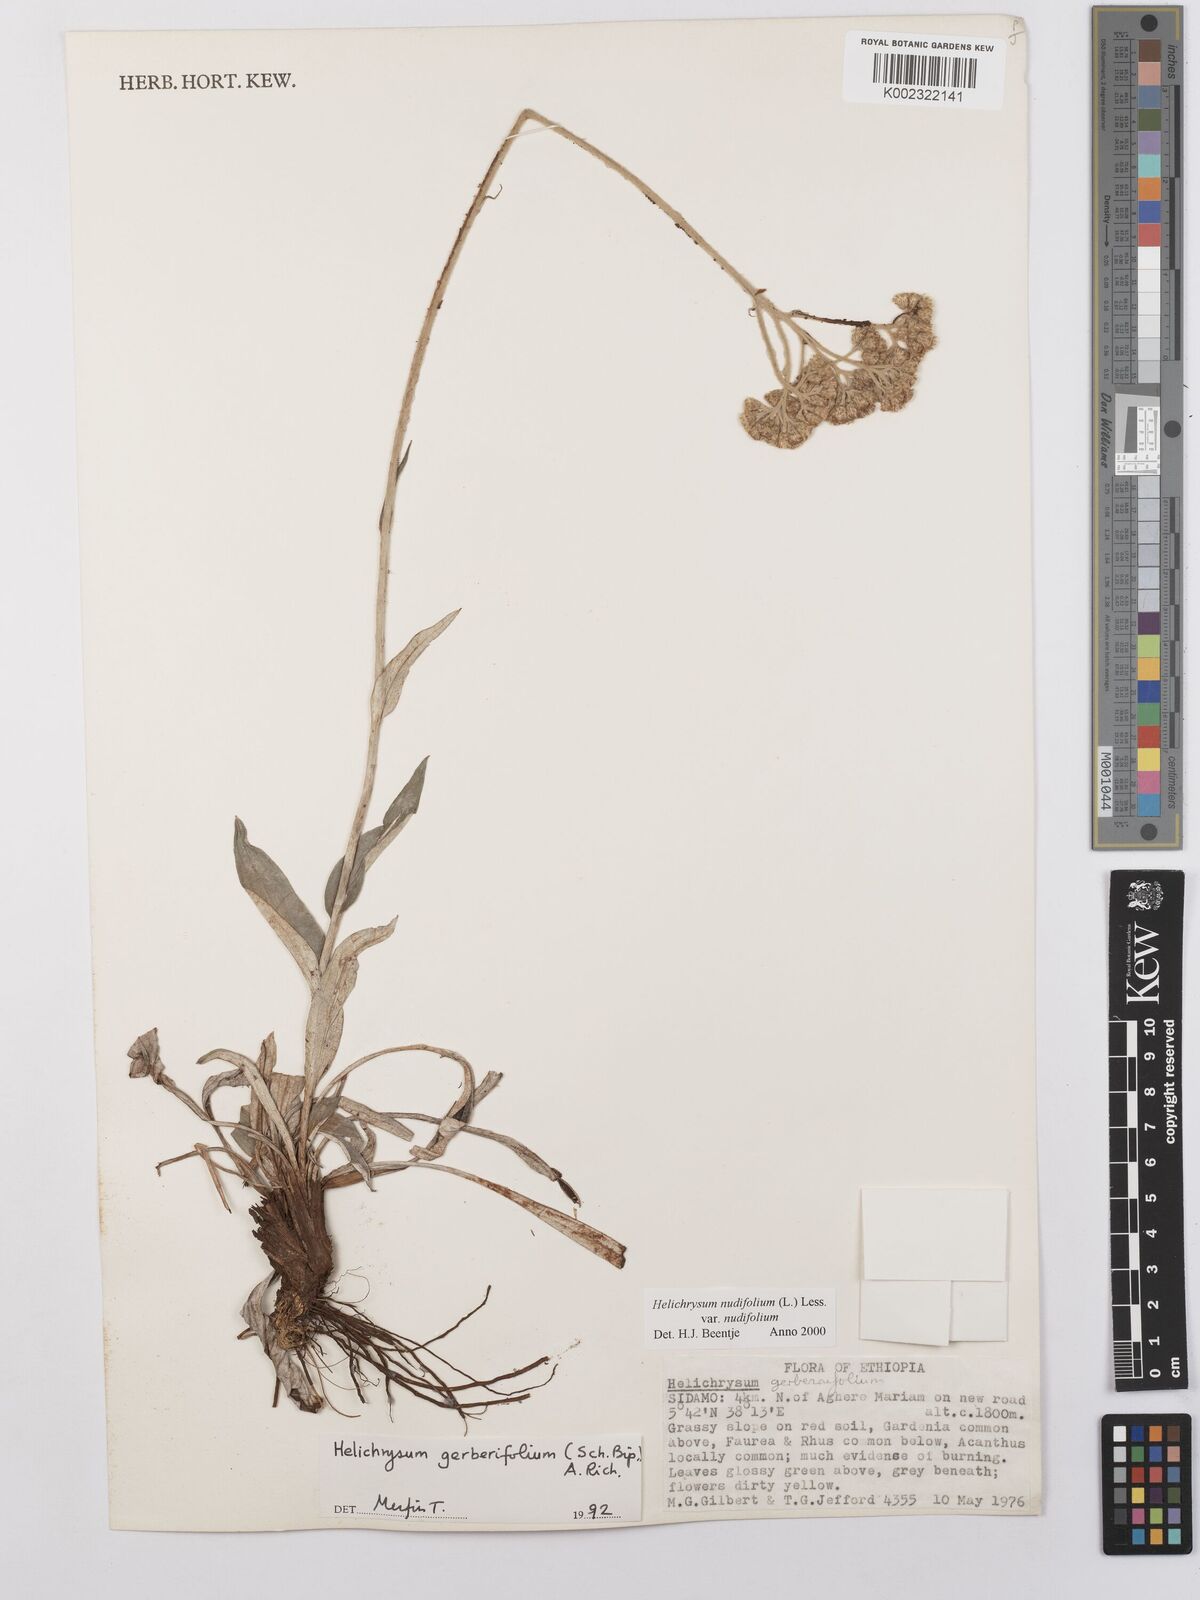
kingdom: Plantae
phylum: Tracheophyta
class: Magnoliopsida
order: Asterales
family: Asteraceae
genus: Helichrysum
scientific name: Helichrysum nudifolium
